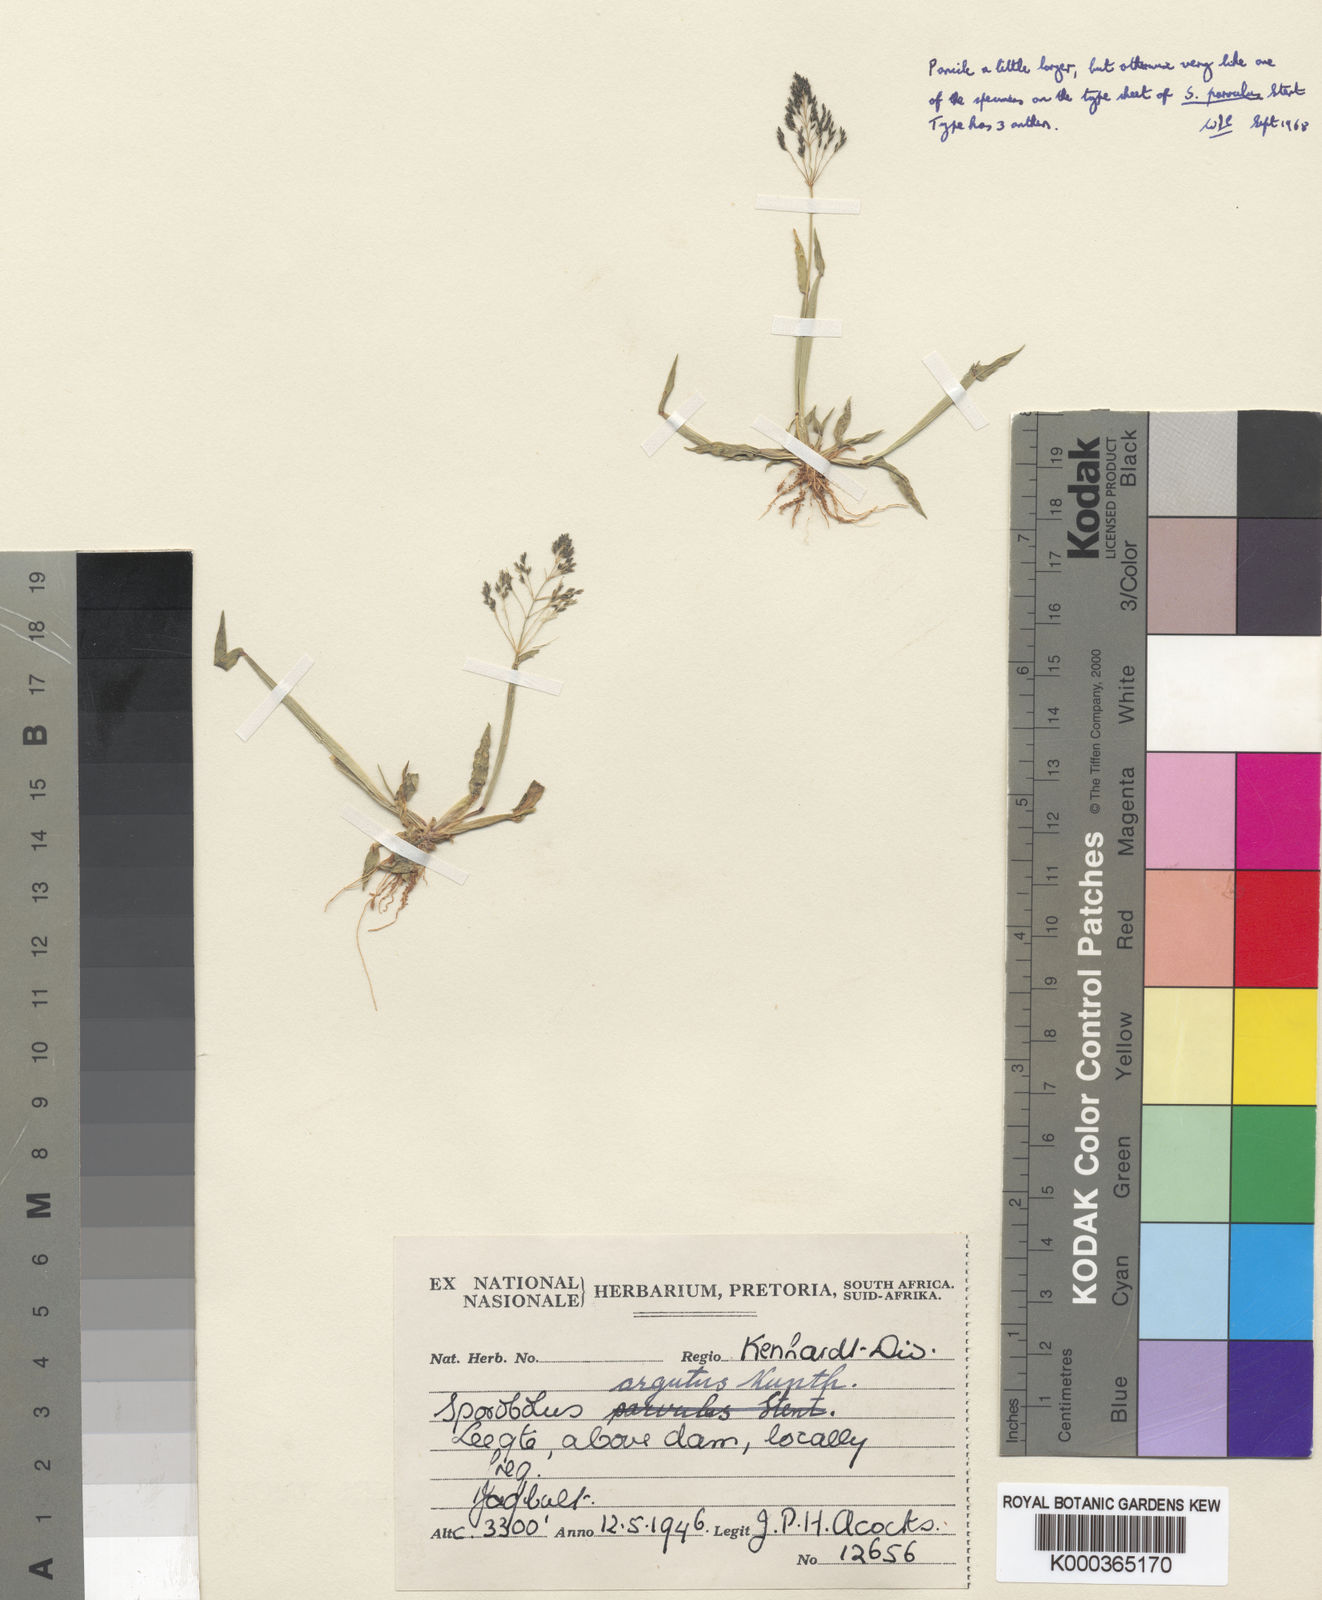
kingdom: Plantae
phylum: Tracheophyta
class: Liliopsida
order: Poales
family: Poaceae
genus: Sporobolus
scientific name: Sporobolus coromandelianus
